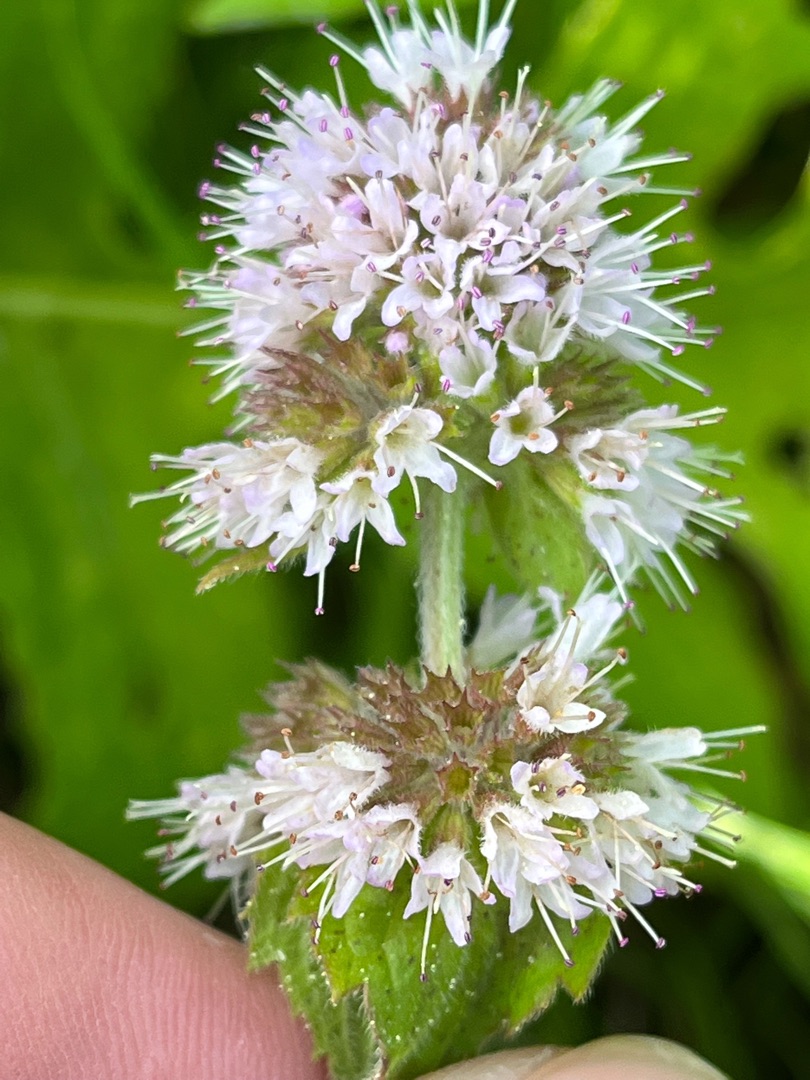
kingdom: Plantae
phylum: Tracheophyta
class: Magnoliopsida
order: Lamiales
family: Lamiaceae
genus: Mentha
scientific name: Mentha aquatica
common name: Vand-mynte
